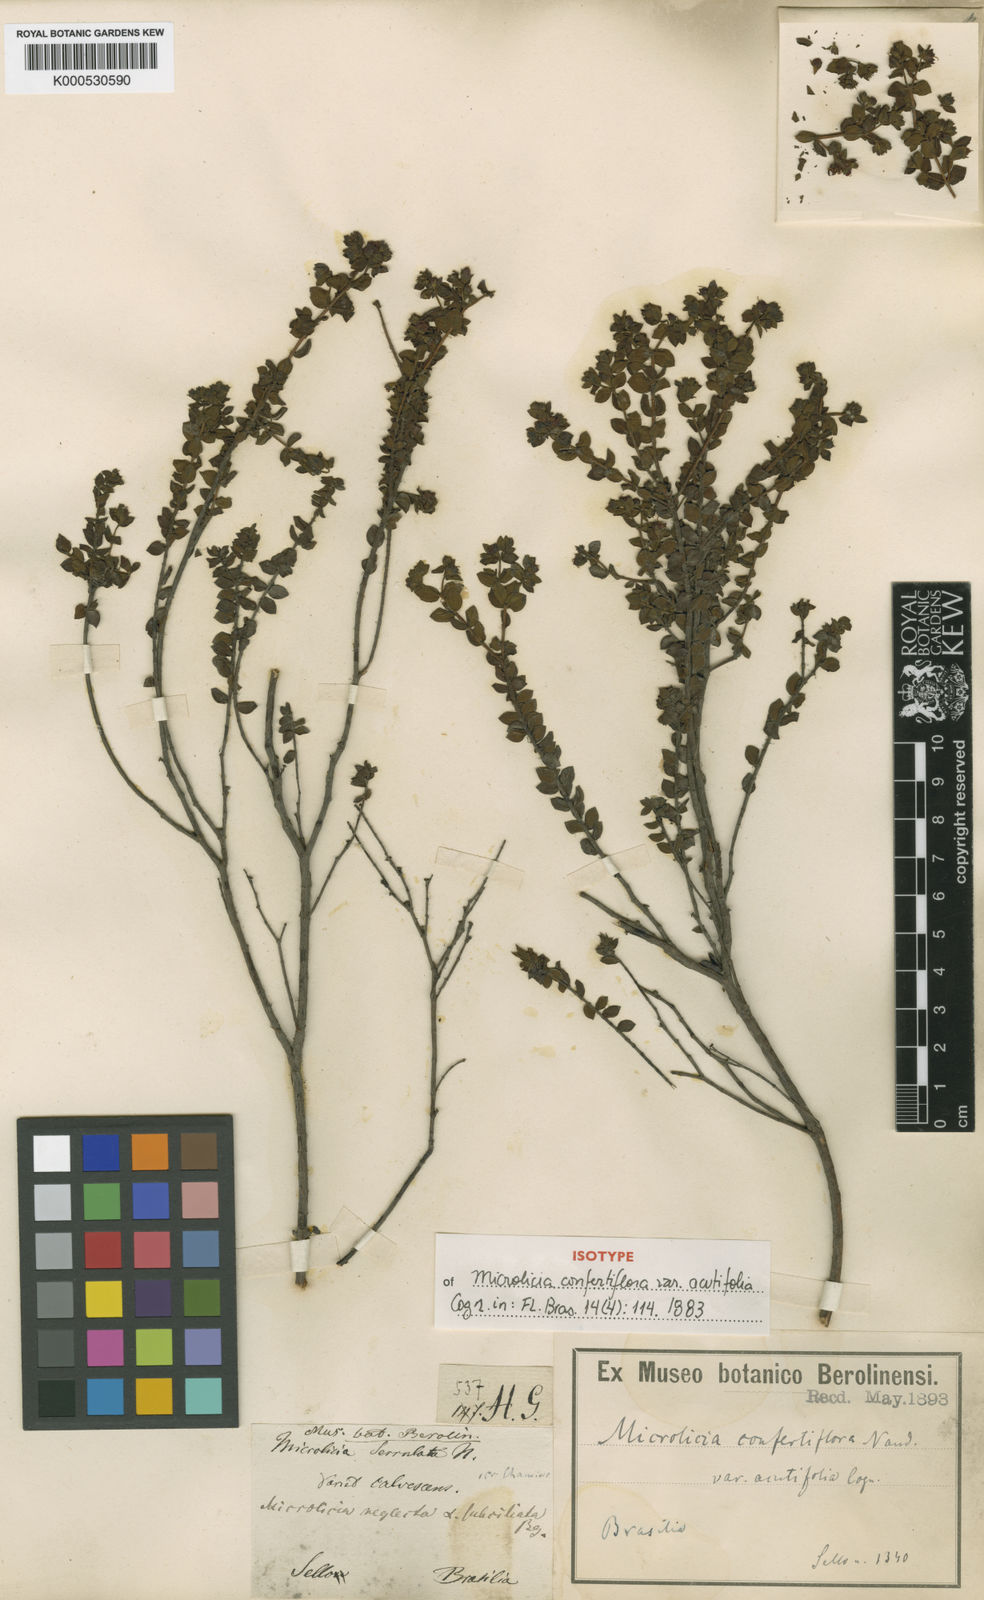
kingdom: Plantae
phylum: Tracheophyta
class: Magnoliopsida
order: Myrtales
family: Melastomataceae
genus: Microlicia
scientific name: Microlicia confertiflora
